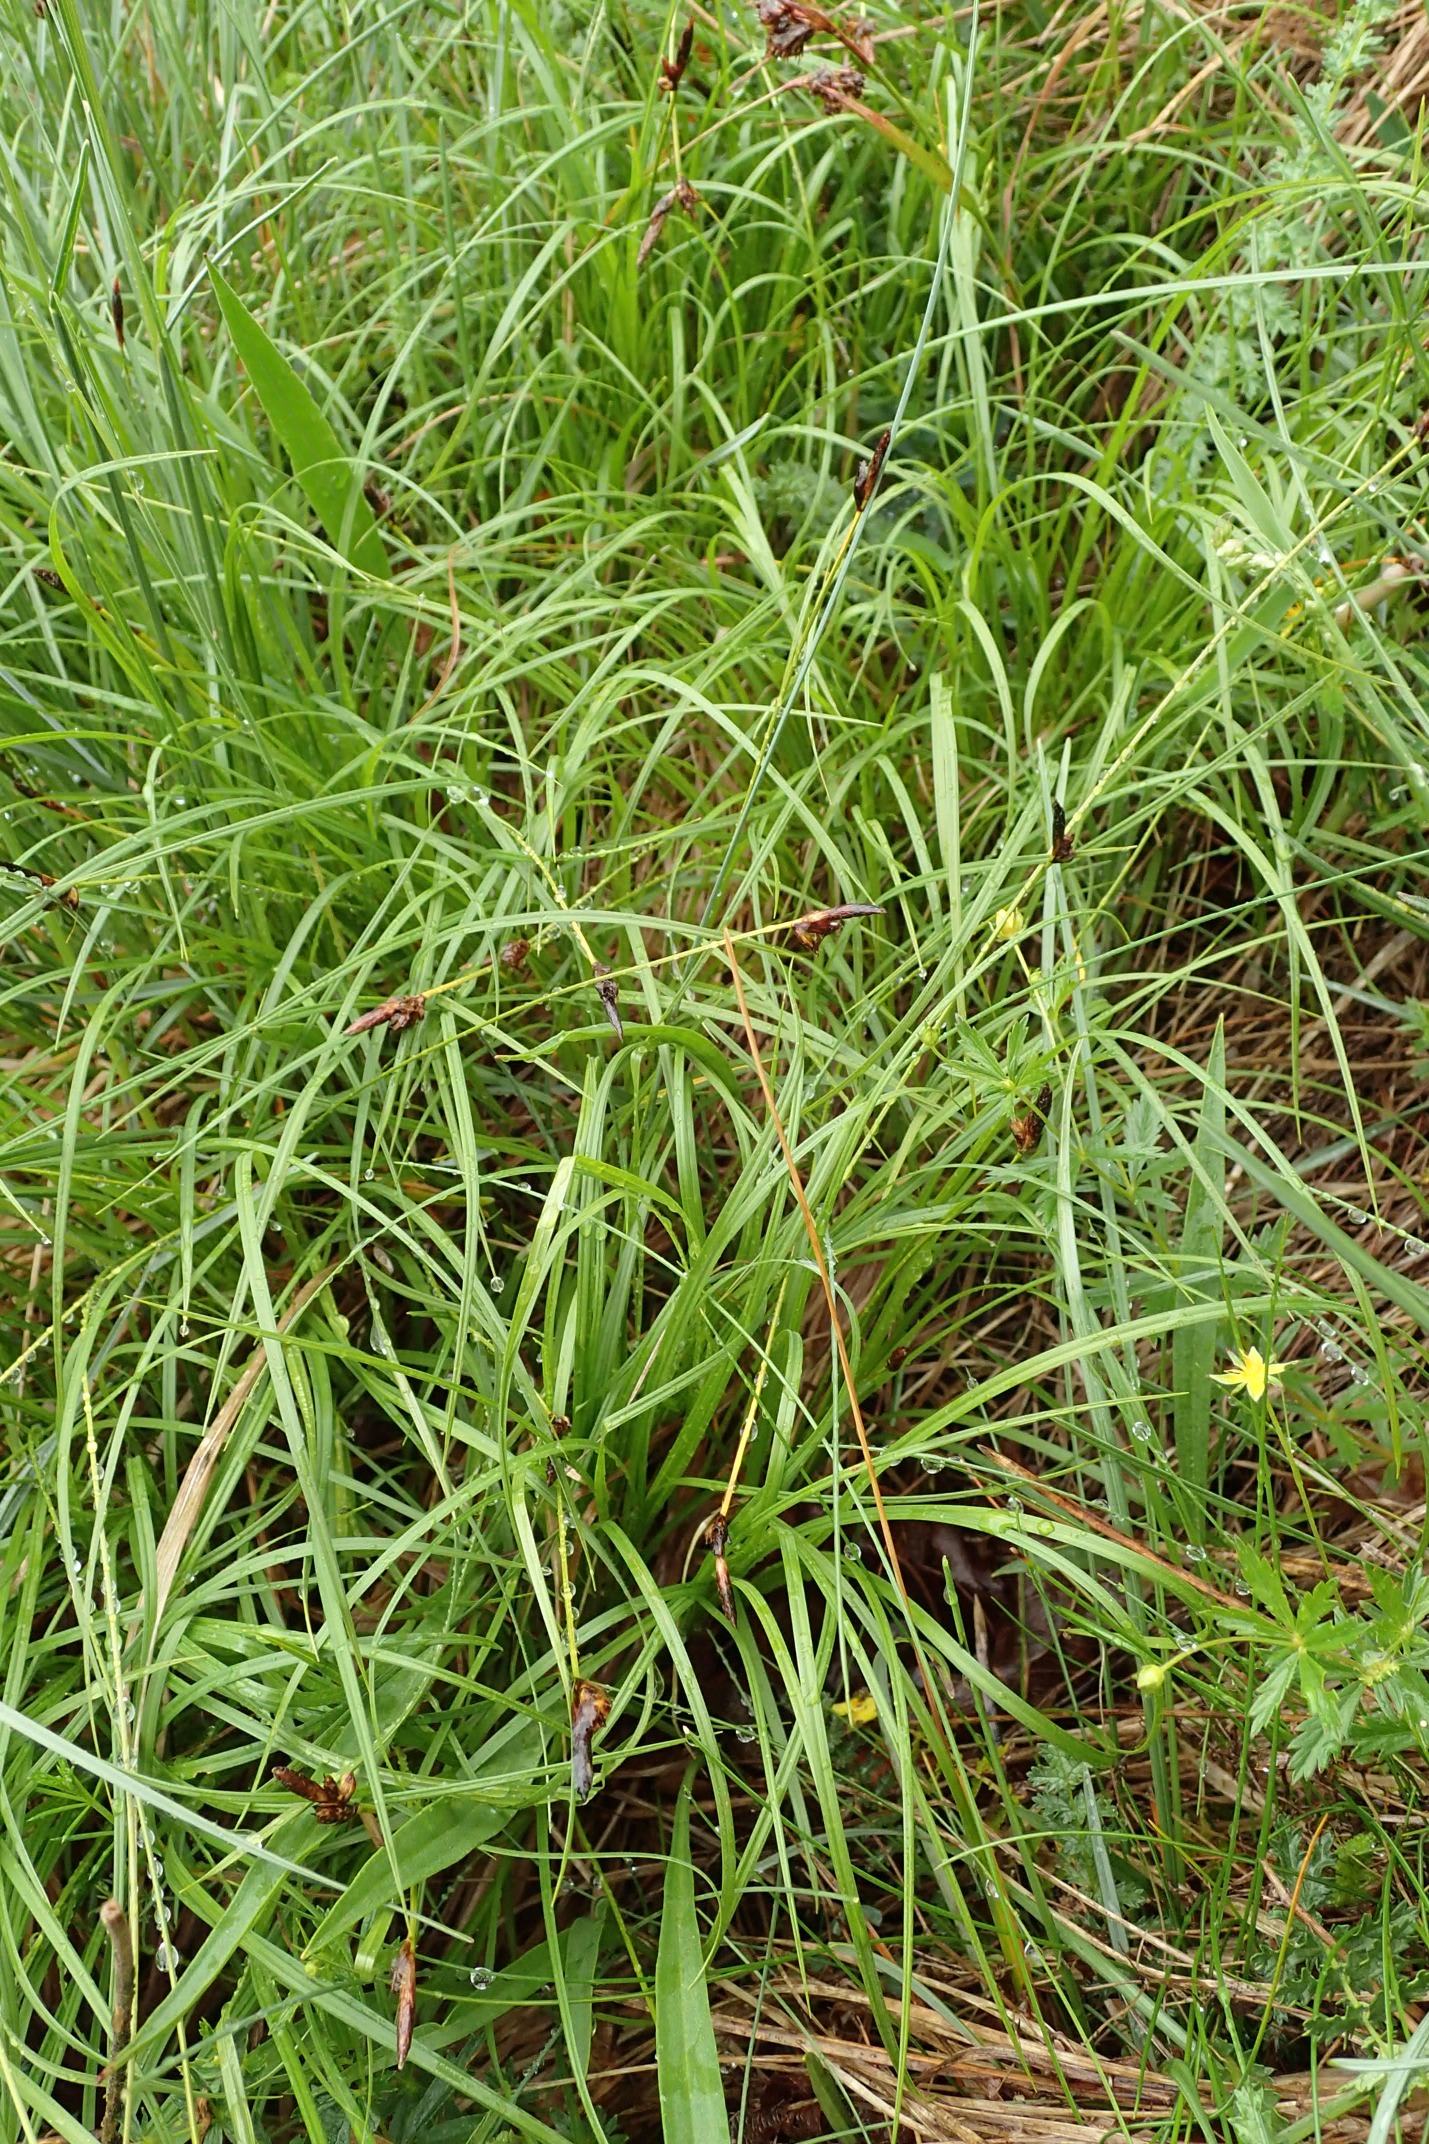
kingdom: Plantae
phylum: Tracheophyta
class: Liliopsida
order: Poales
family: Cyperaceae
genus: Carex
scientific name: Carex montana
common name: Bakke-star
